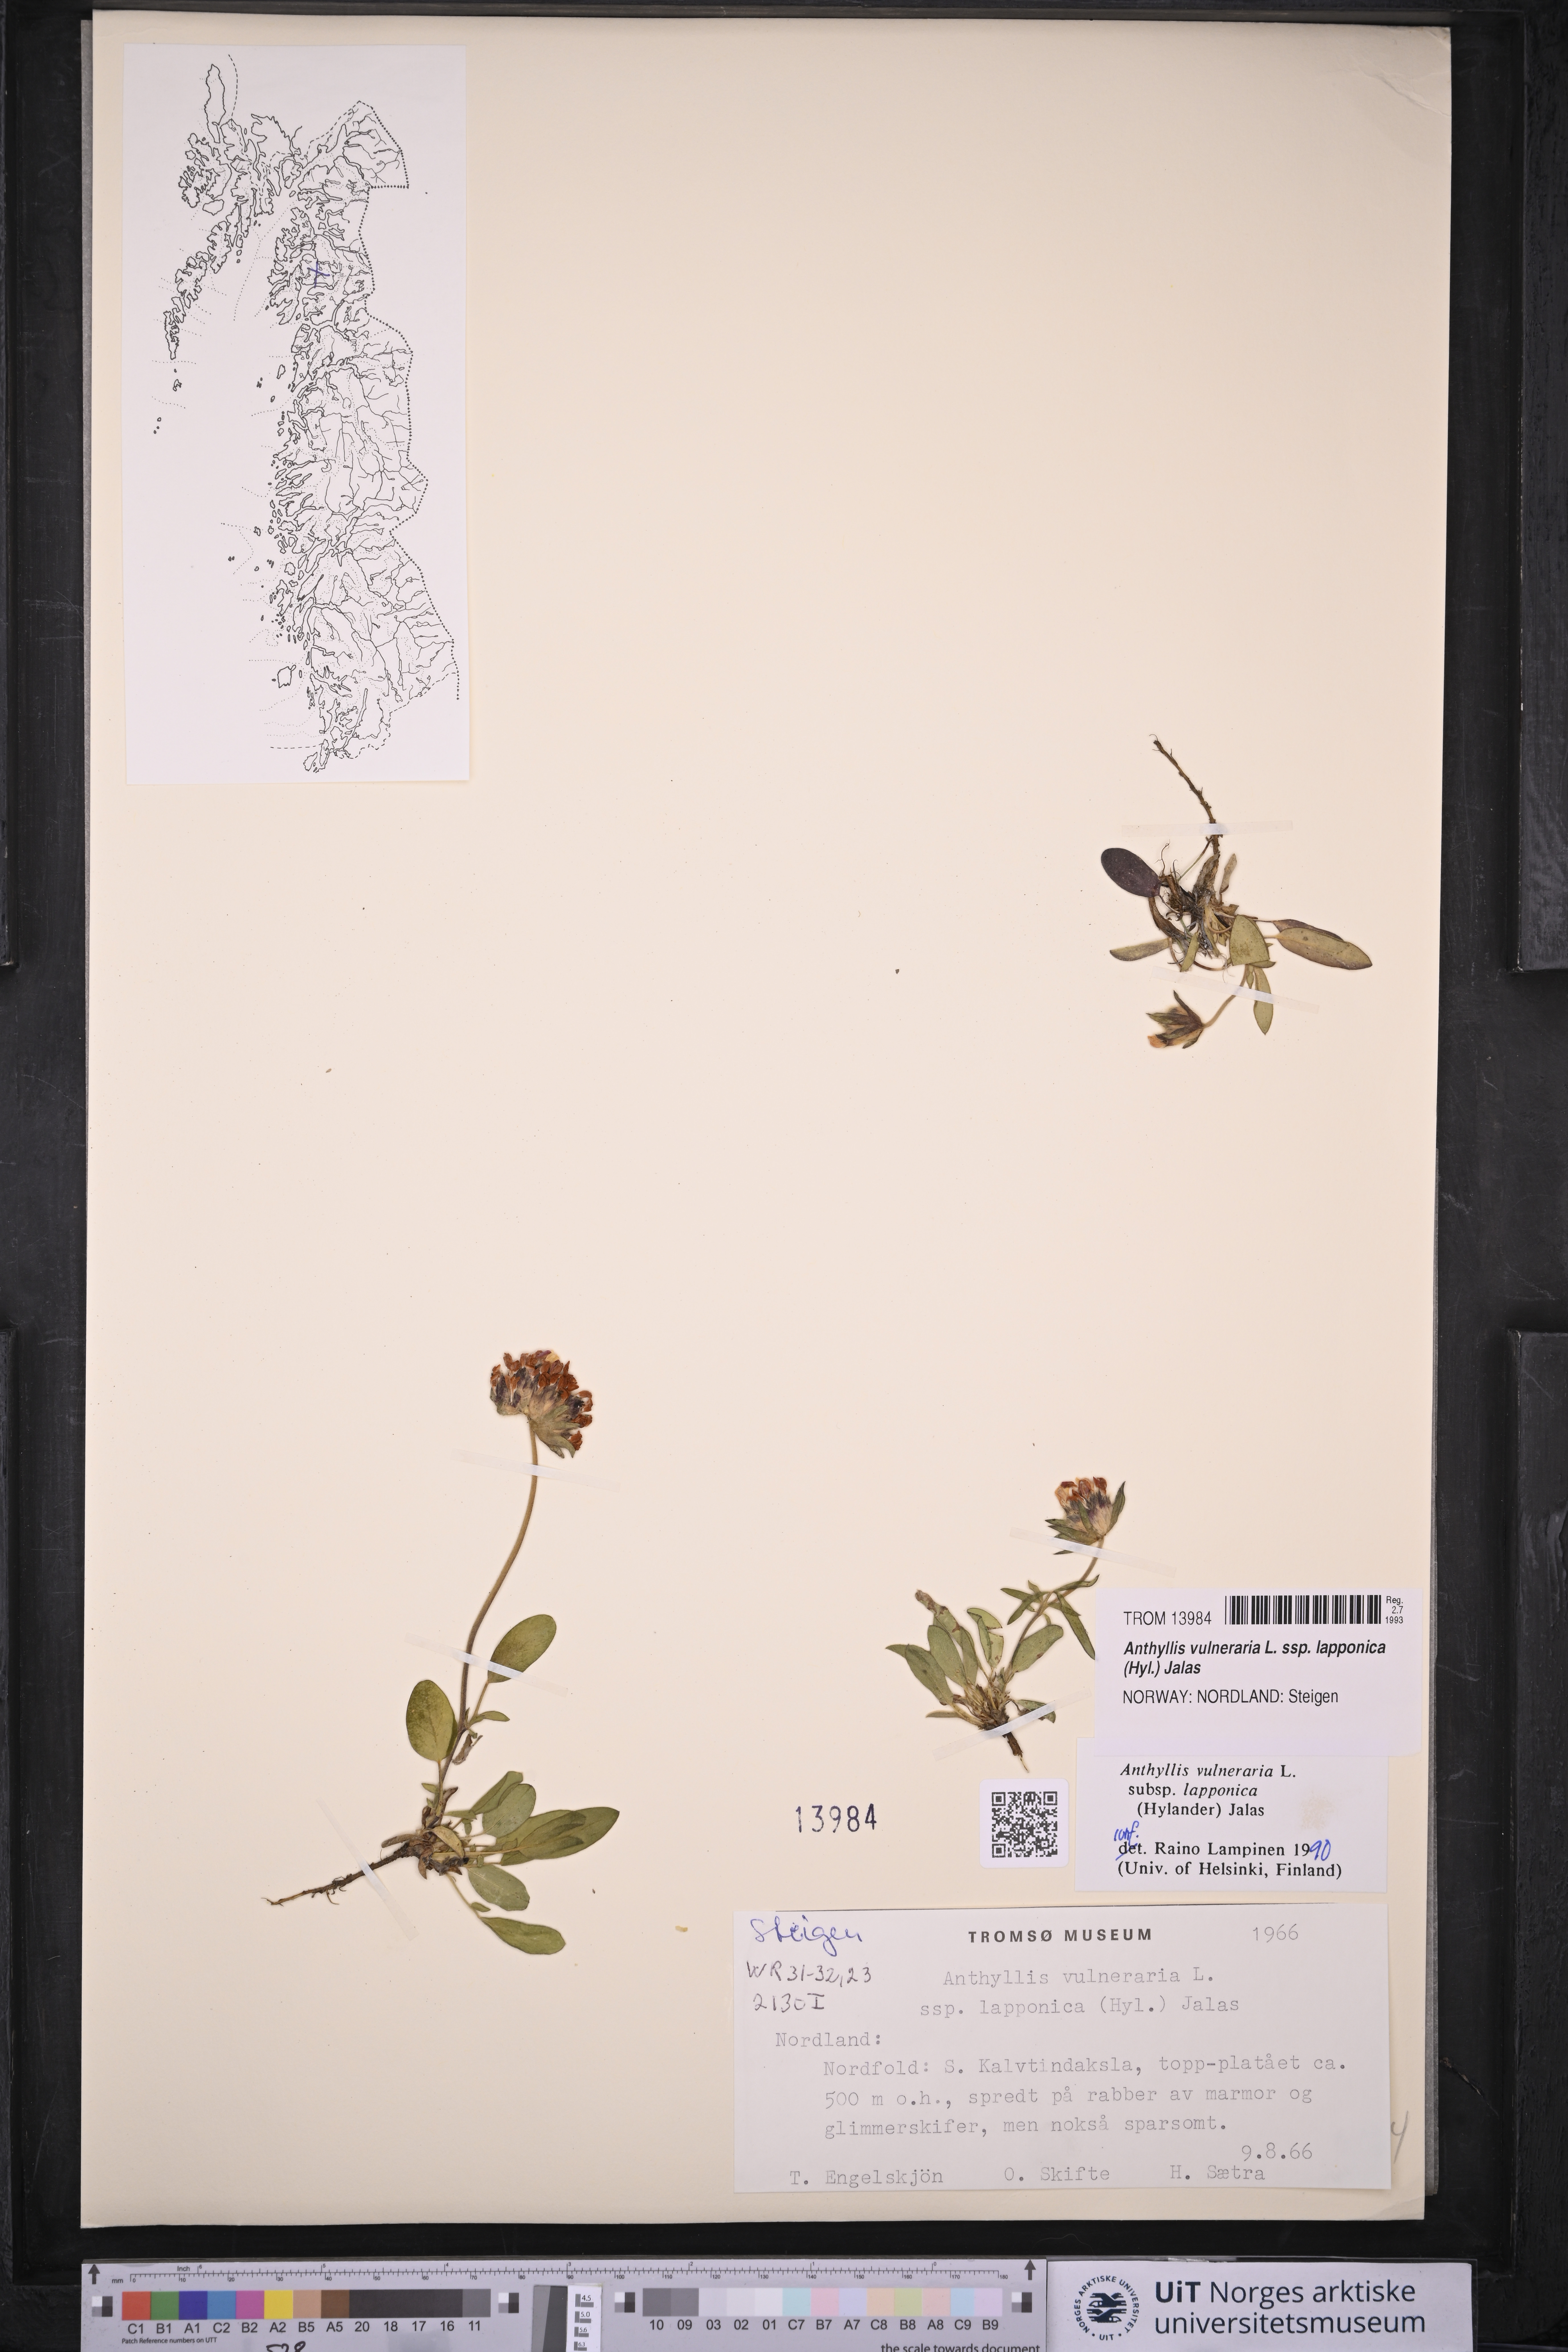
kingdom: Plantae
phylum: Tracheophyta
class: Magnoliopsida
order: Fabales
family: Fabaceae
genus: Anthyllis
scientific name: Anthyllis vulneraria
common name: Kidney vetch
